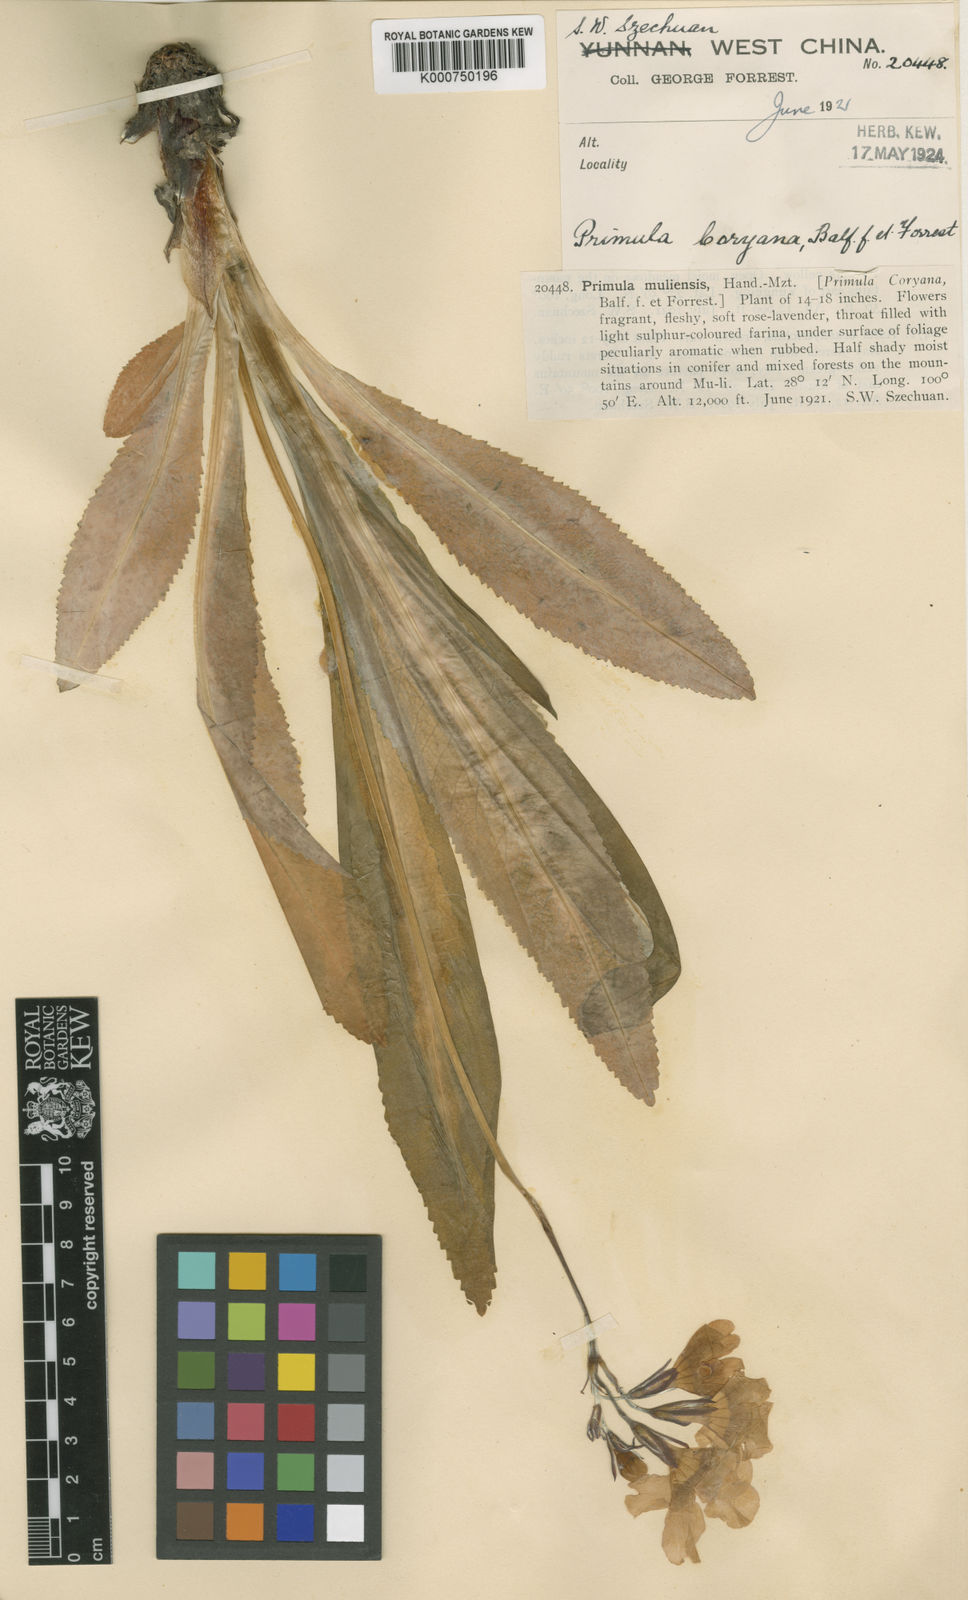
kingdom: Plantae
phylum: Tracheophyta
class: Magnoliopsida
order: Ericales
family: Primulaceae
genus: Primula
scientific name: Primula boreiocalliantha
